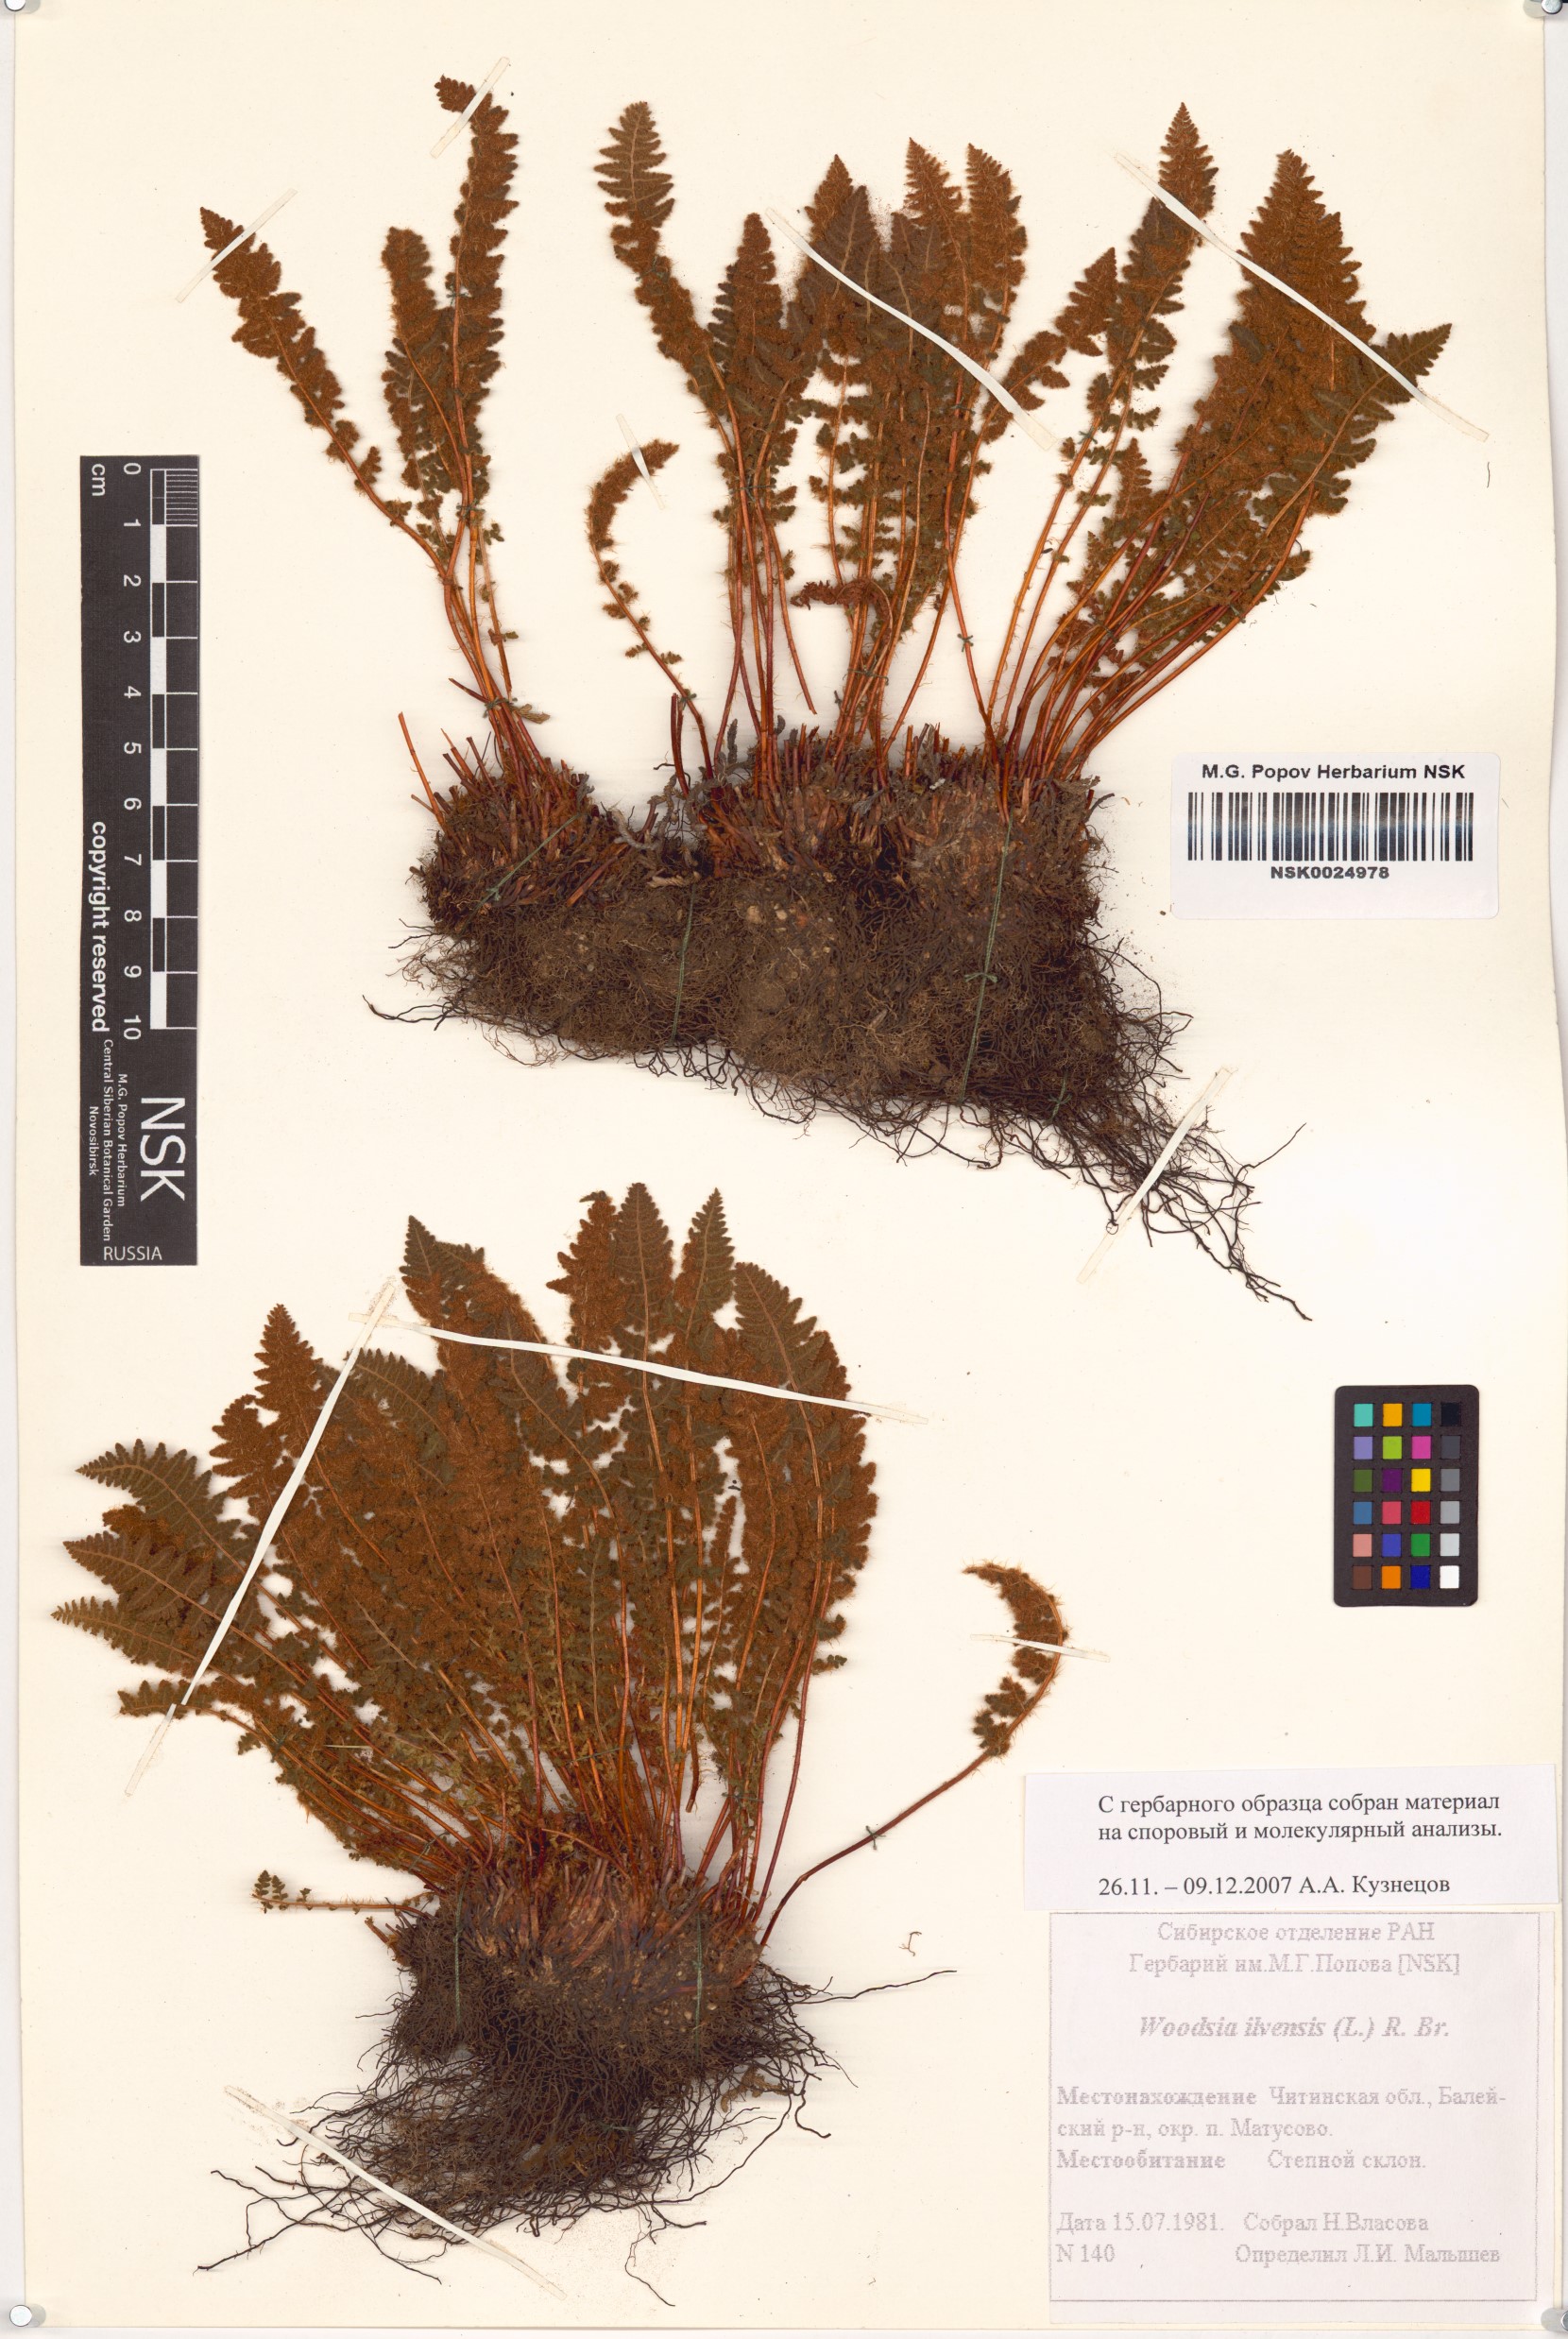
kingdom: Plantae
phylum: Tracheophyta
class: Polypodiopsida
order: Polypodiales
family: Woodsiaceae
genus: Woodsia
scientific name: Woodsia ilvensis
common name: Fragrant woodsia
